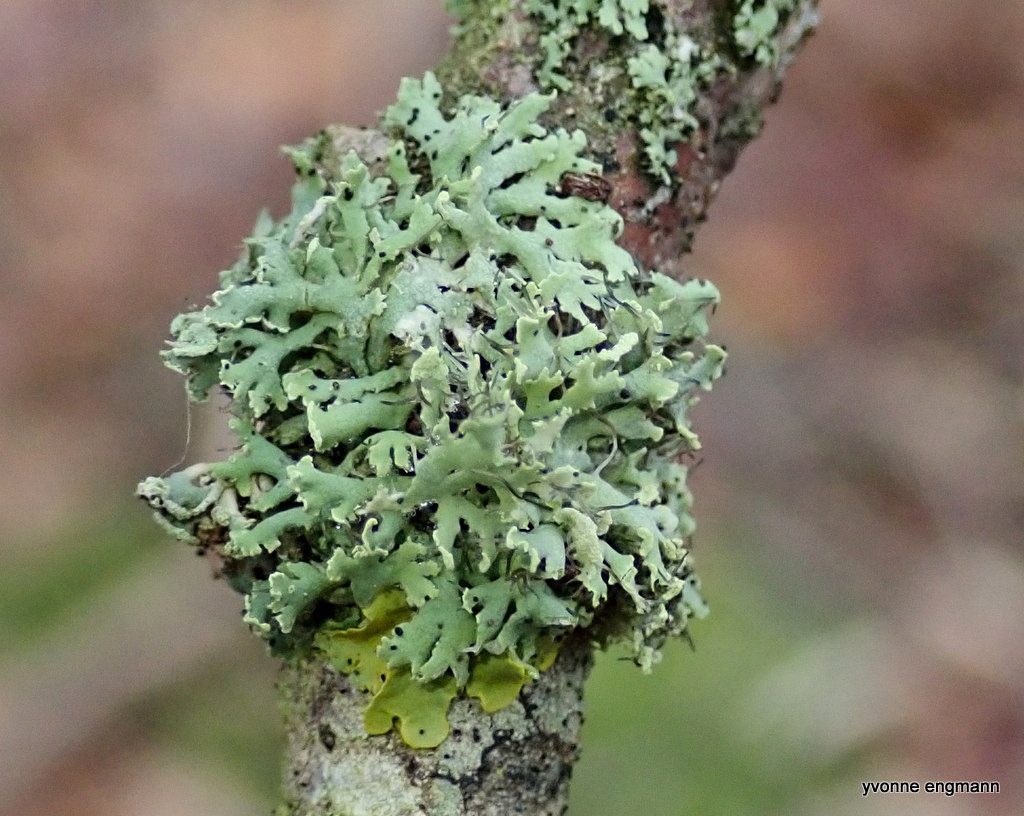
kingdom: Fungi
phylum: Ascomycota
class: Lecanoromycetes
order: Caliciales
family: Physciaceae
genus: Physcia
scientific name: Physcia tenella
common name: spæd rosetlav
